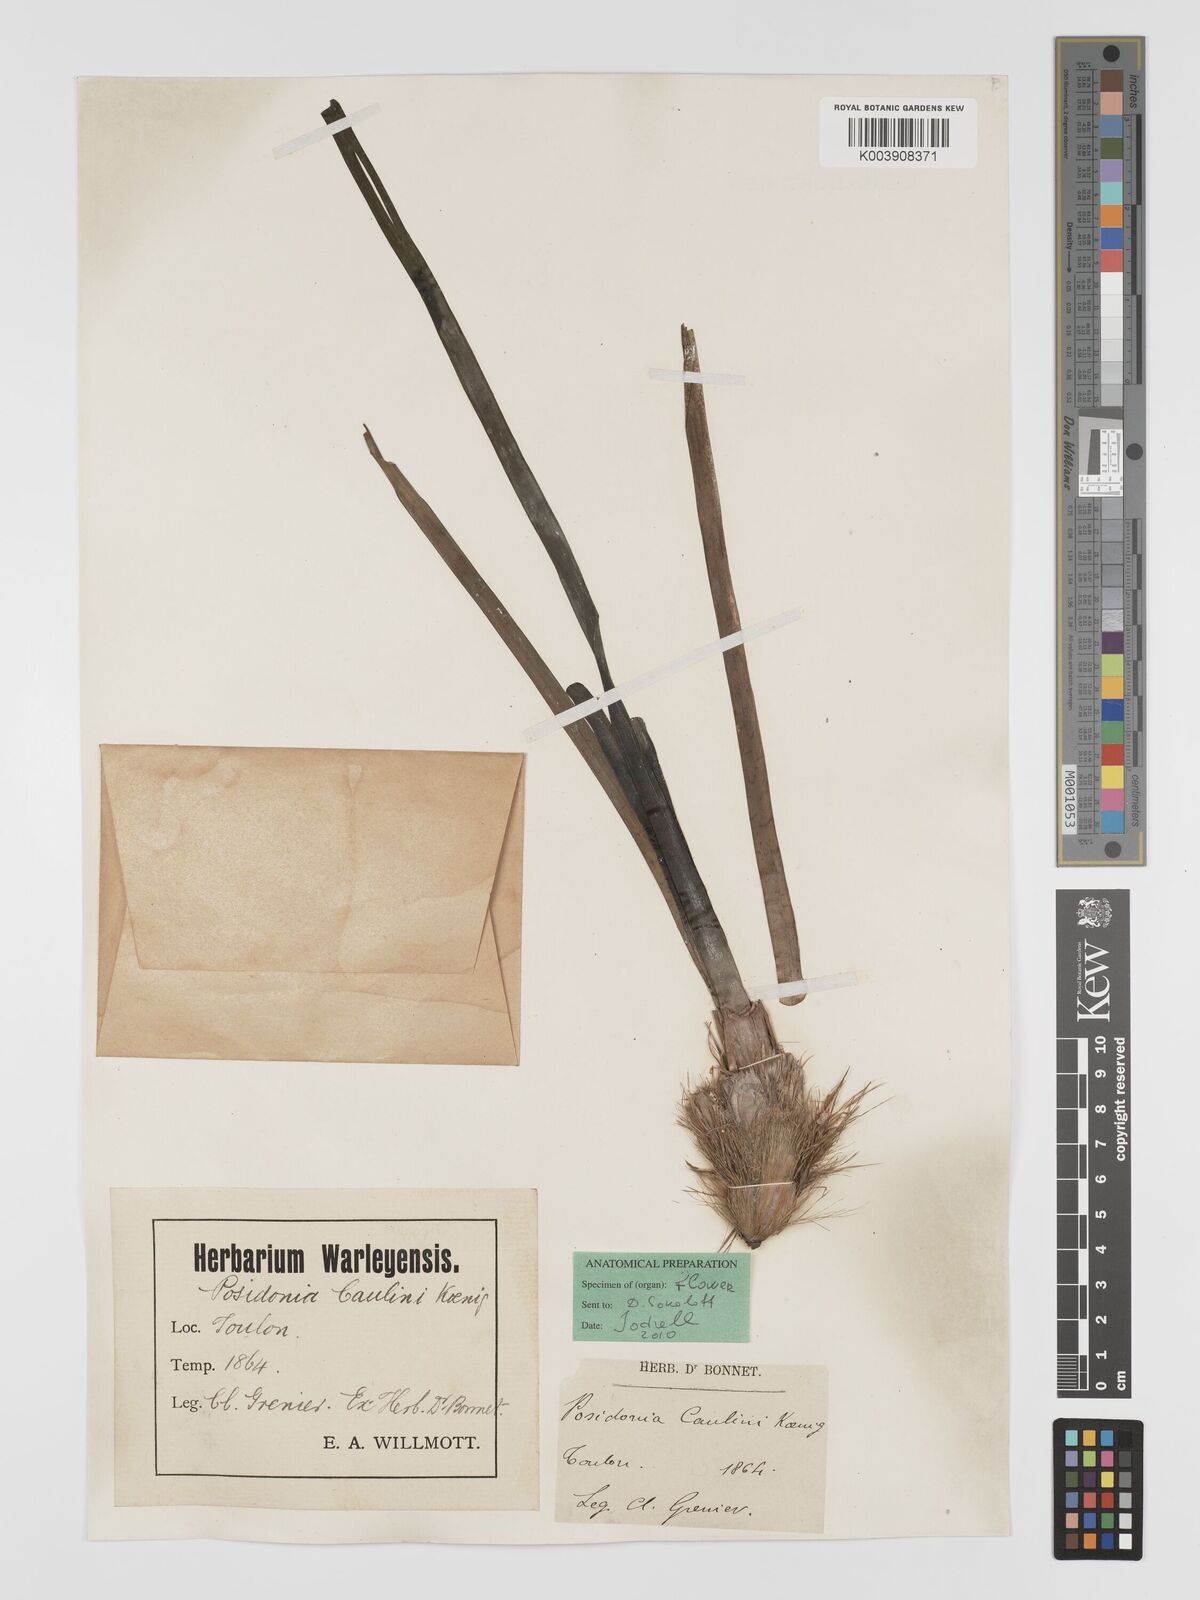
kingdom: Plantae
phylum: Tracheophyta
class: Liliopsida
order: Alismatales
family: Posidoniaceae
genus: Posidonia
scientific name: Posidonia
